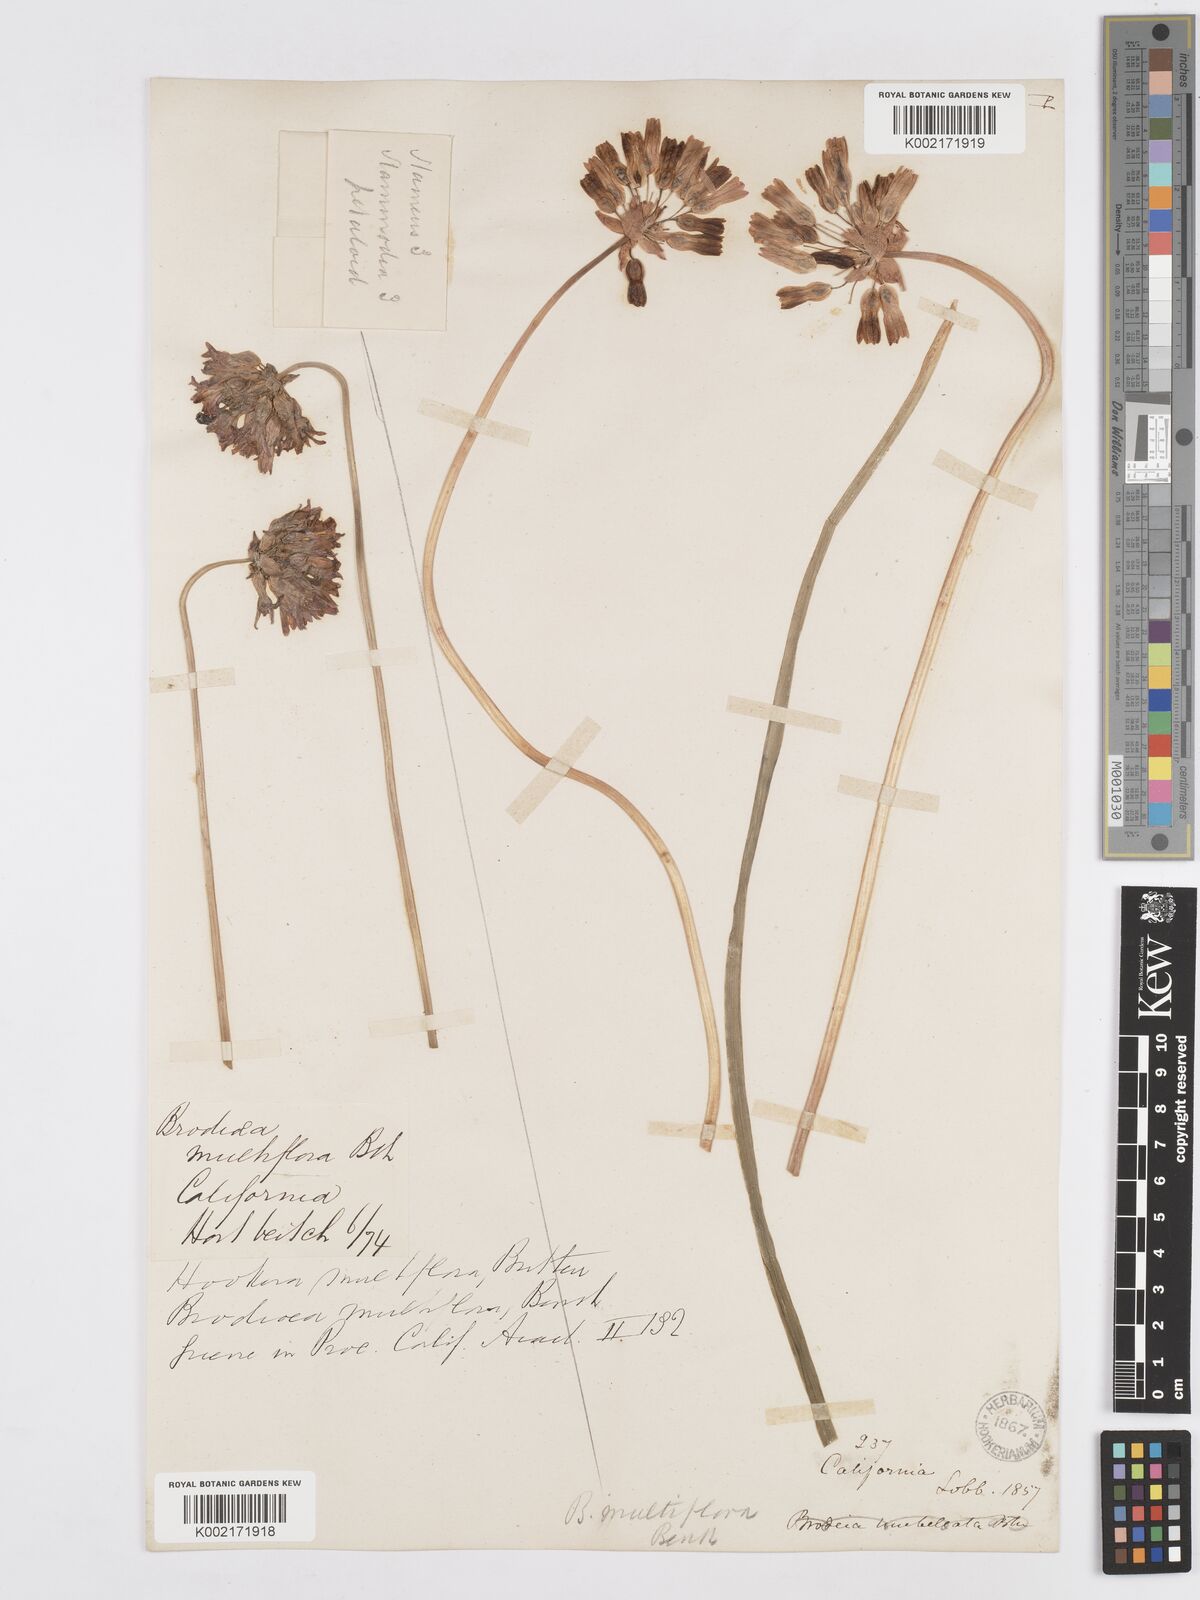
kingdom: Plantae
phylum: Tracheophyta
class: Liliopsida
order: Asparagales
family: Asparagaceae
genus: Dichelostemma
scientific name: Dichelostemma multiflorum
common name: Round-tooth ookow
